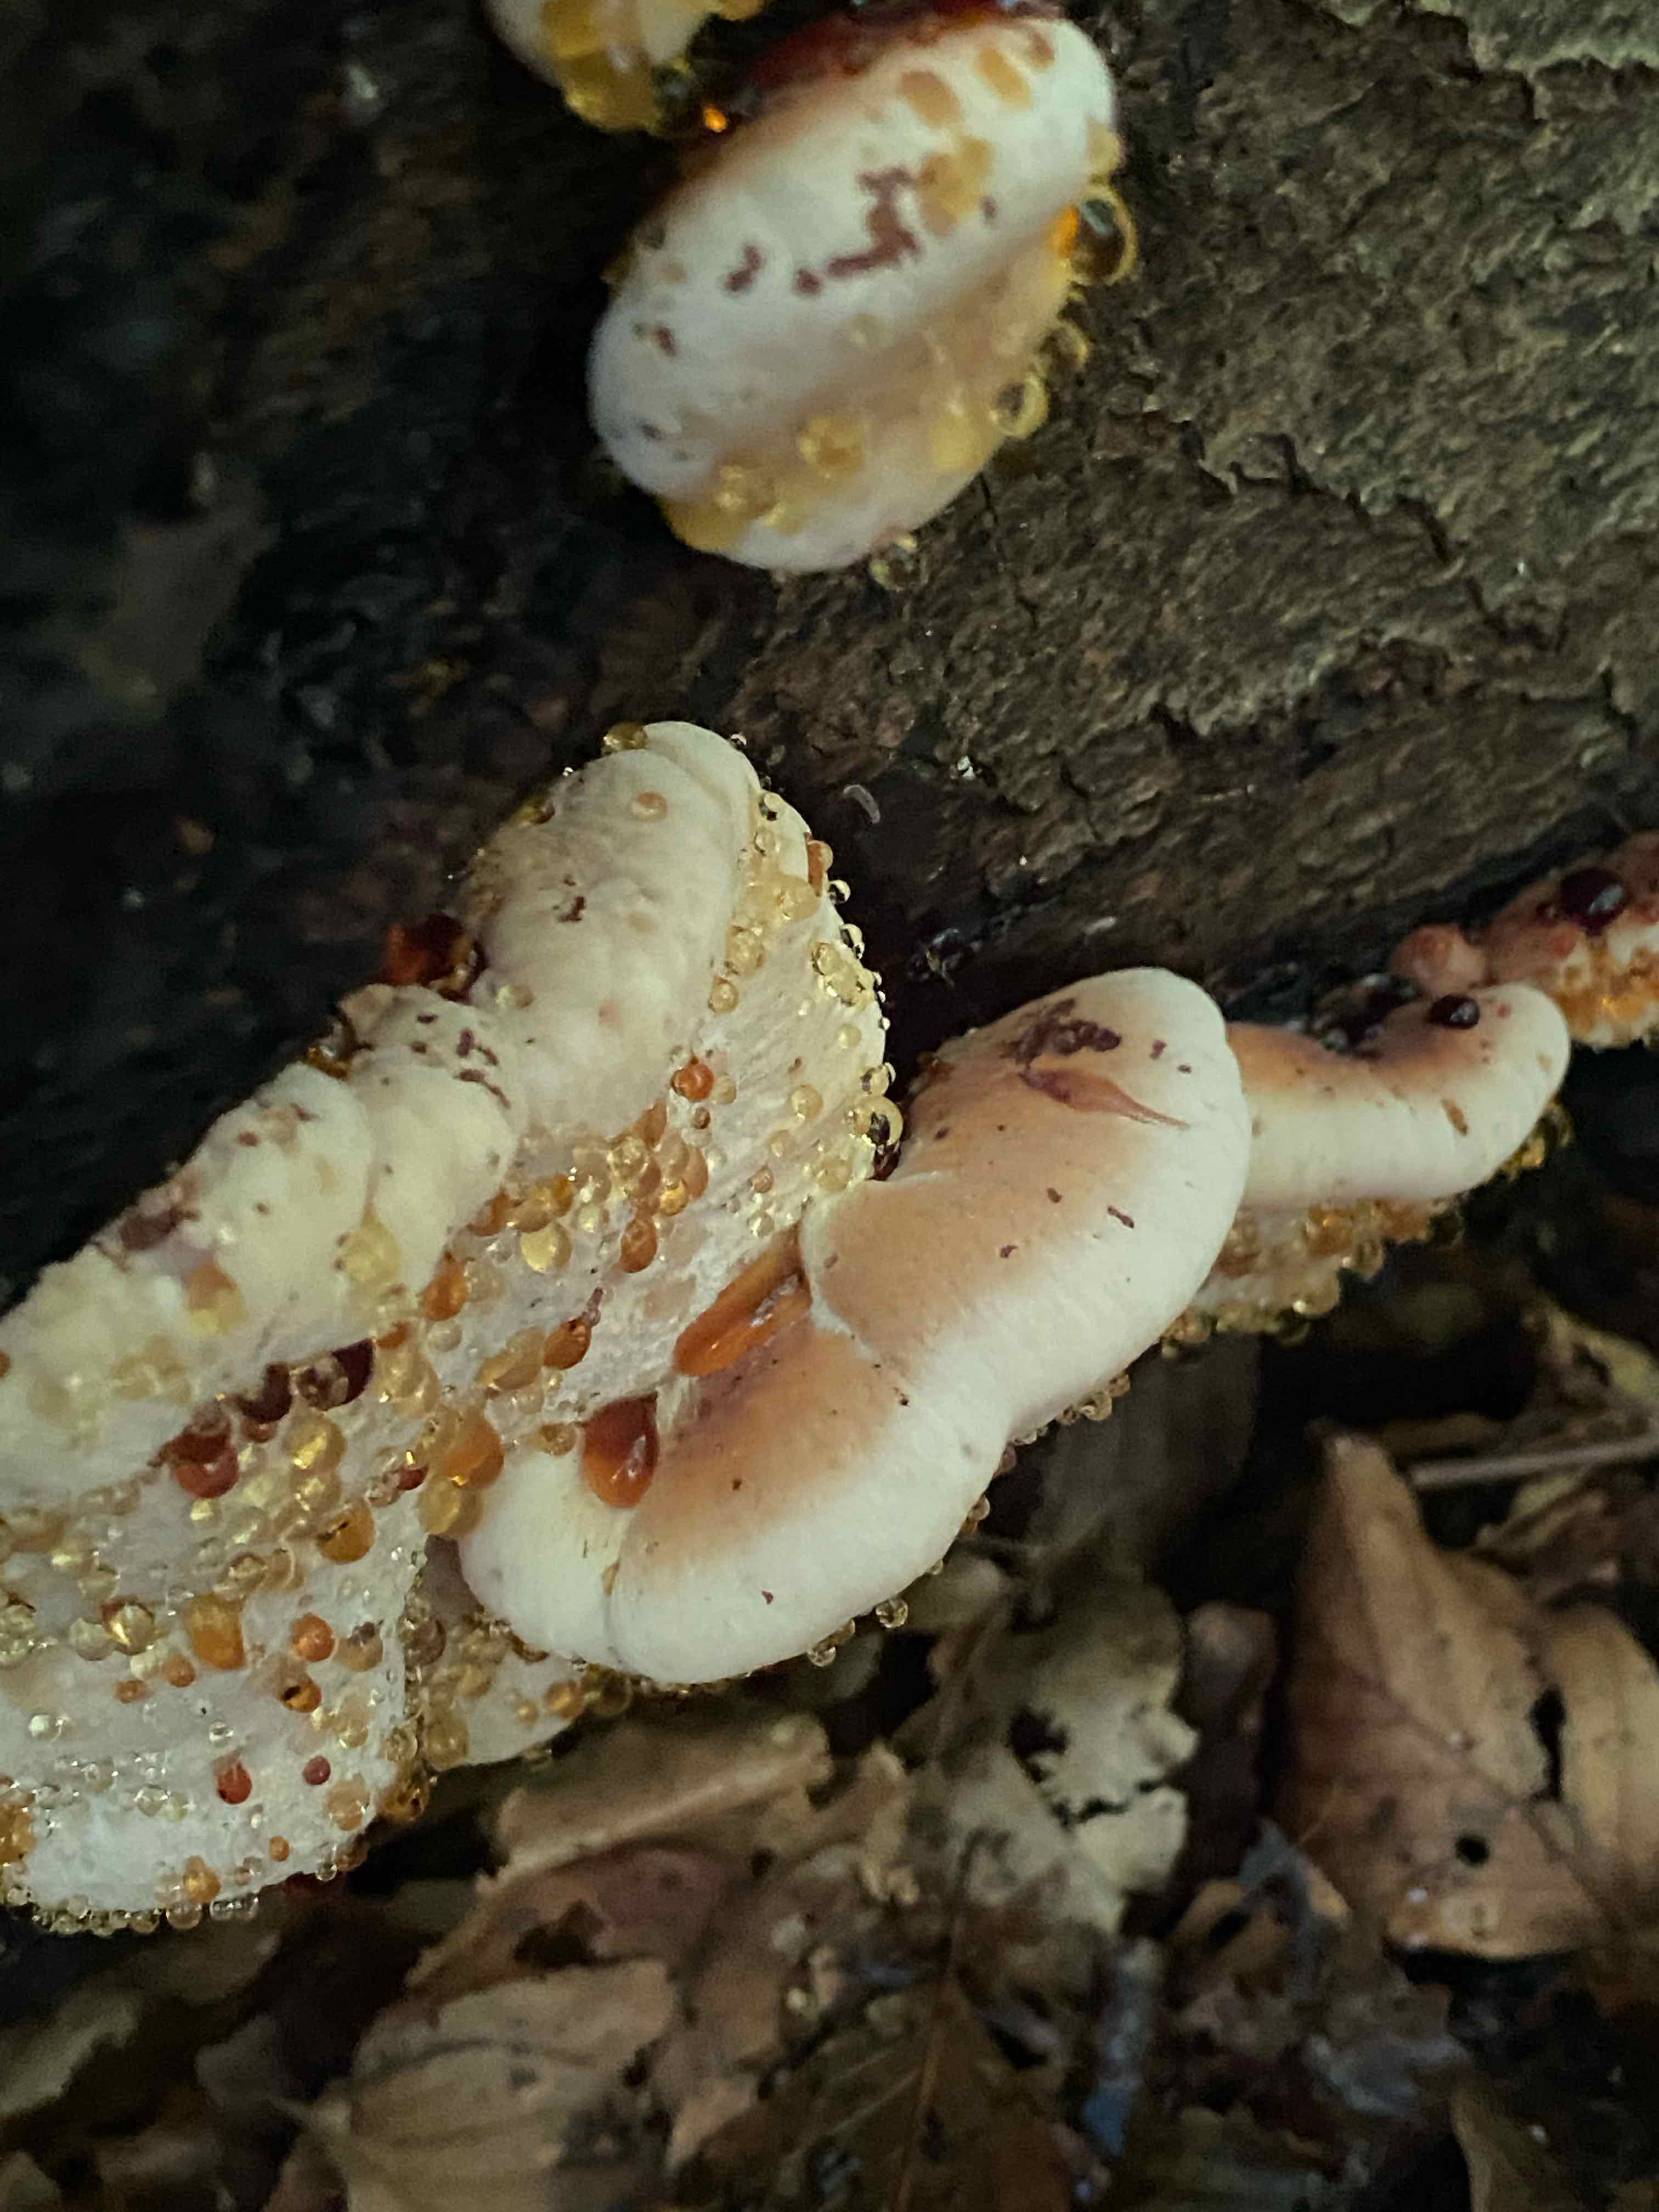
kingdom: Fungi
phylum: Basidiomycota
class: Agaricomycetes
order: Polyporales
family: Ischnodermataceae
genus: Ischnoderma
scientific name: Ischnoderma resinosum
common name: løv-tjæreporesvamp
